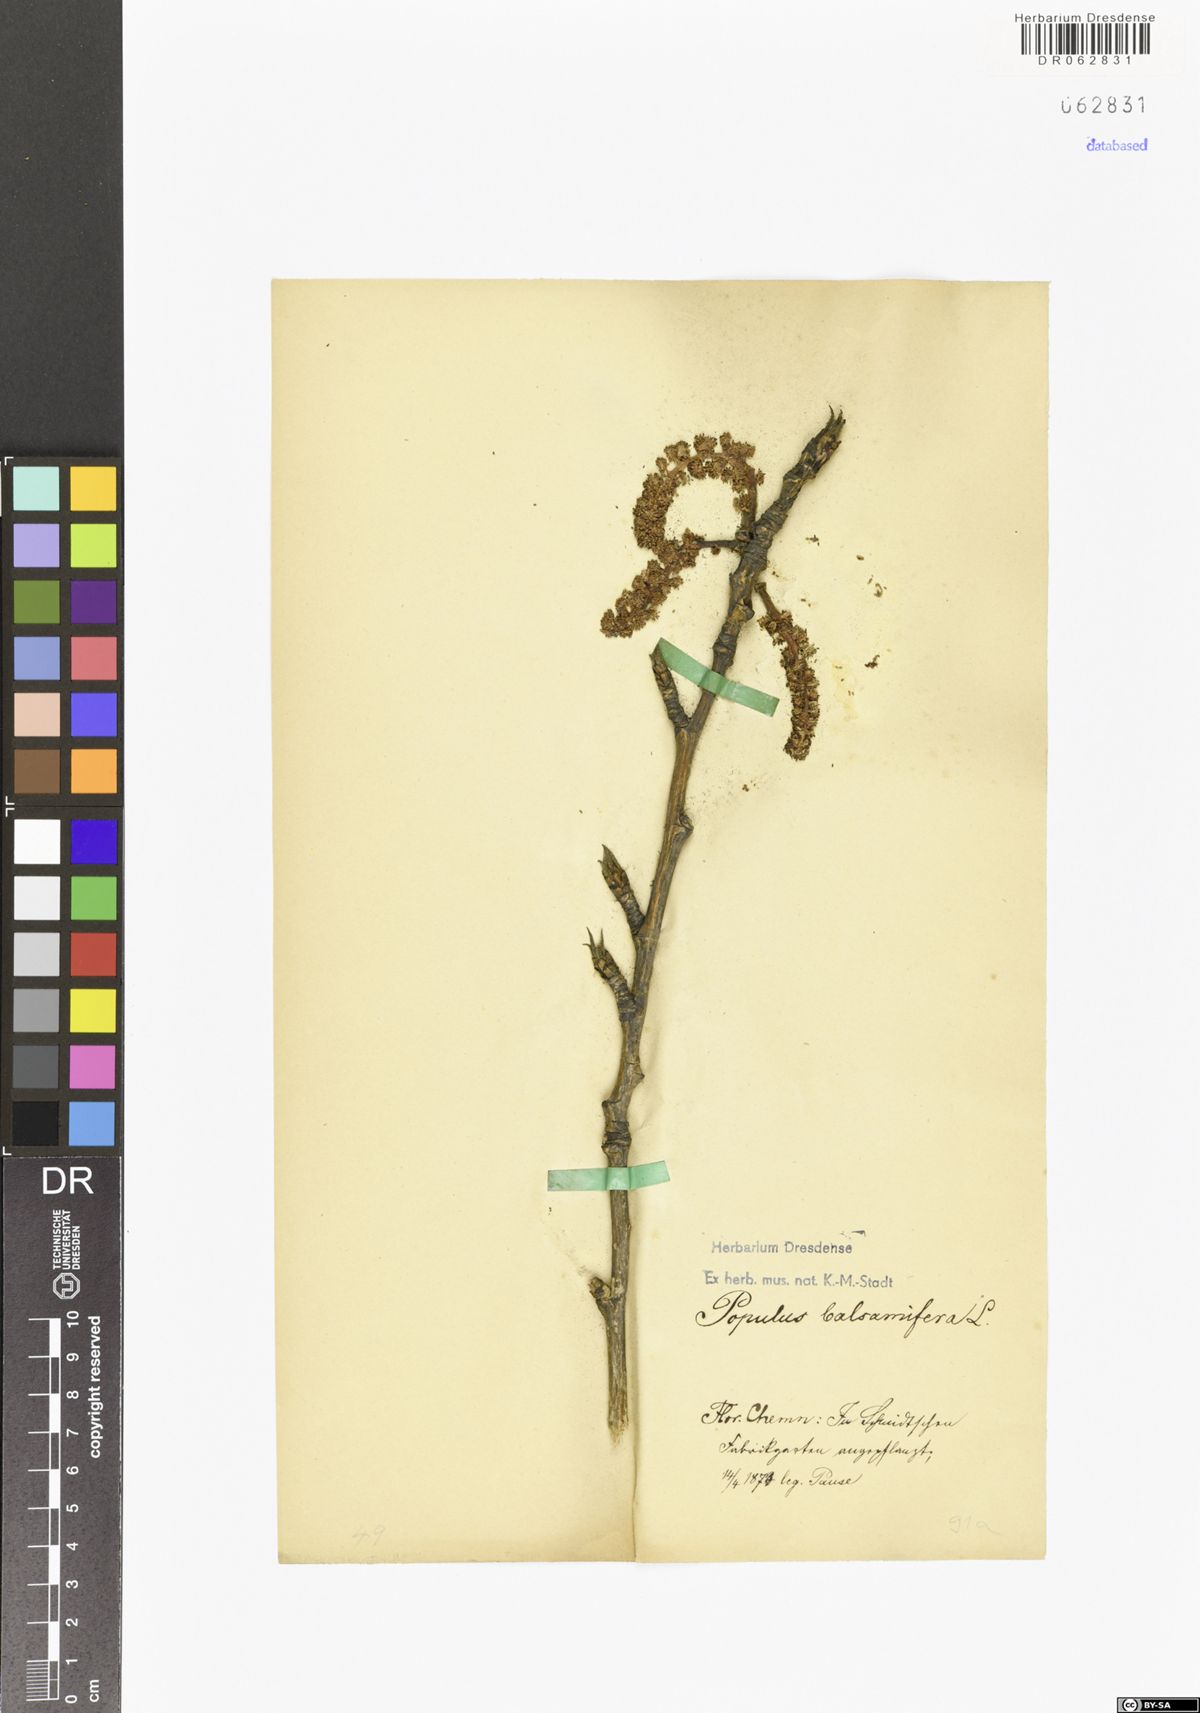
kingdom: Plantae
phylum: Tracheophyta
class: Magnoliopsida
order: Malpighiales
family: Salicaceae
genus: Populus
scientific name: Populus balsamifera
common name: Balsam poplar
